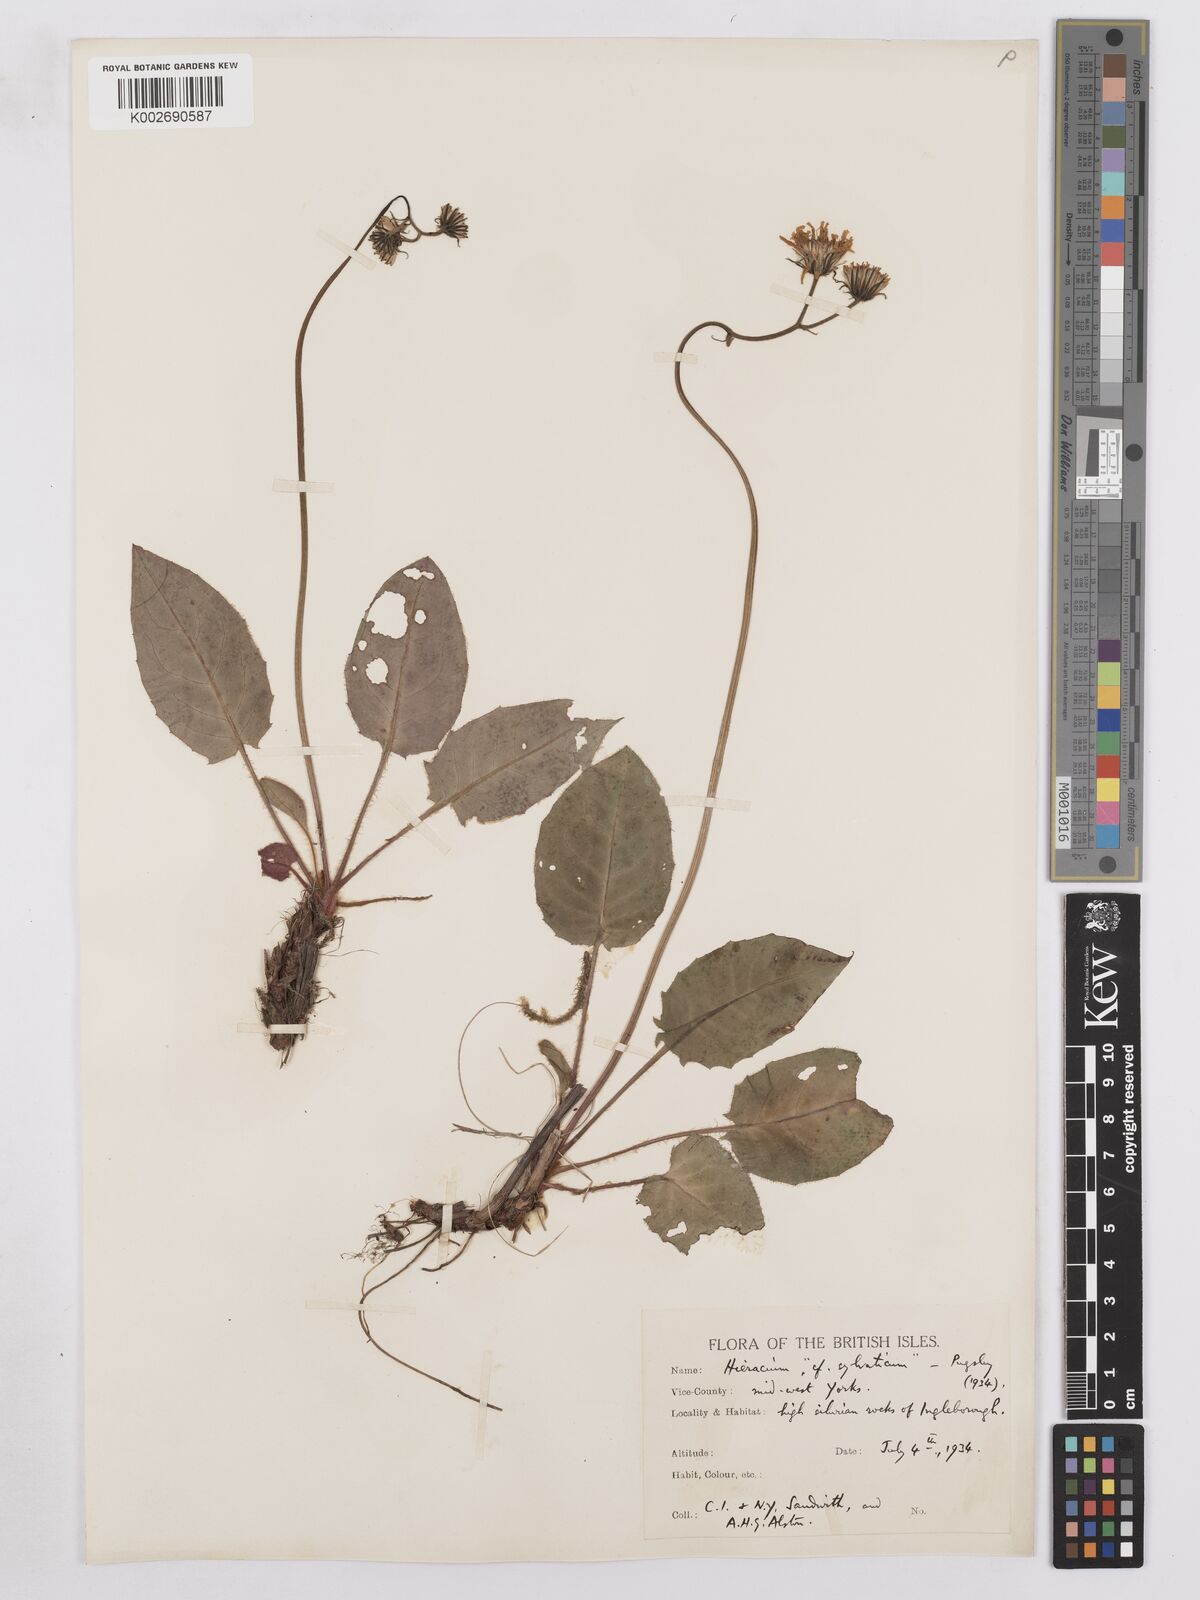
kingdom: Plantae
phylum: Tracheophyta
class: Magnoliopsida
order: Asterales
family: Asteraceae
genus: Hieracium
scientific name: Hieracium subbritannicum
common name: Limestone hawkweed
